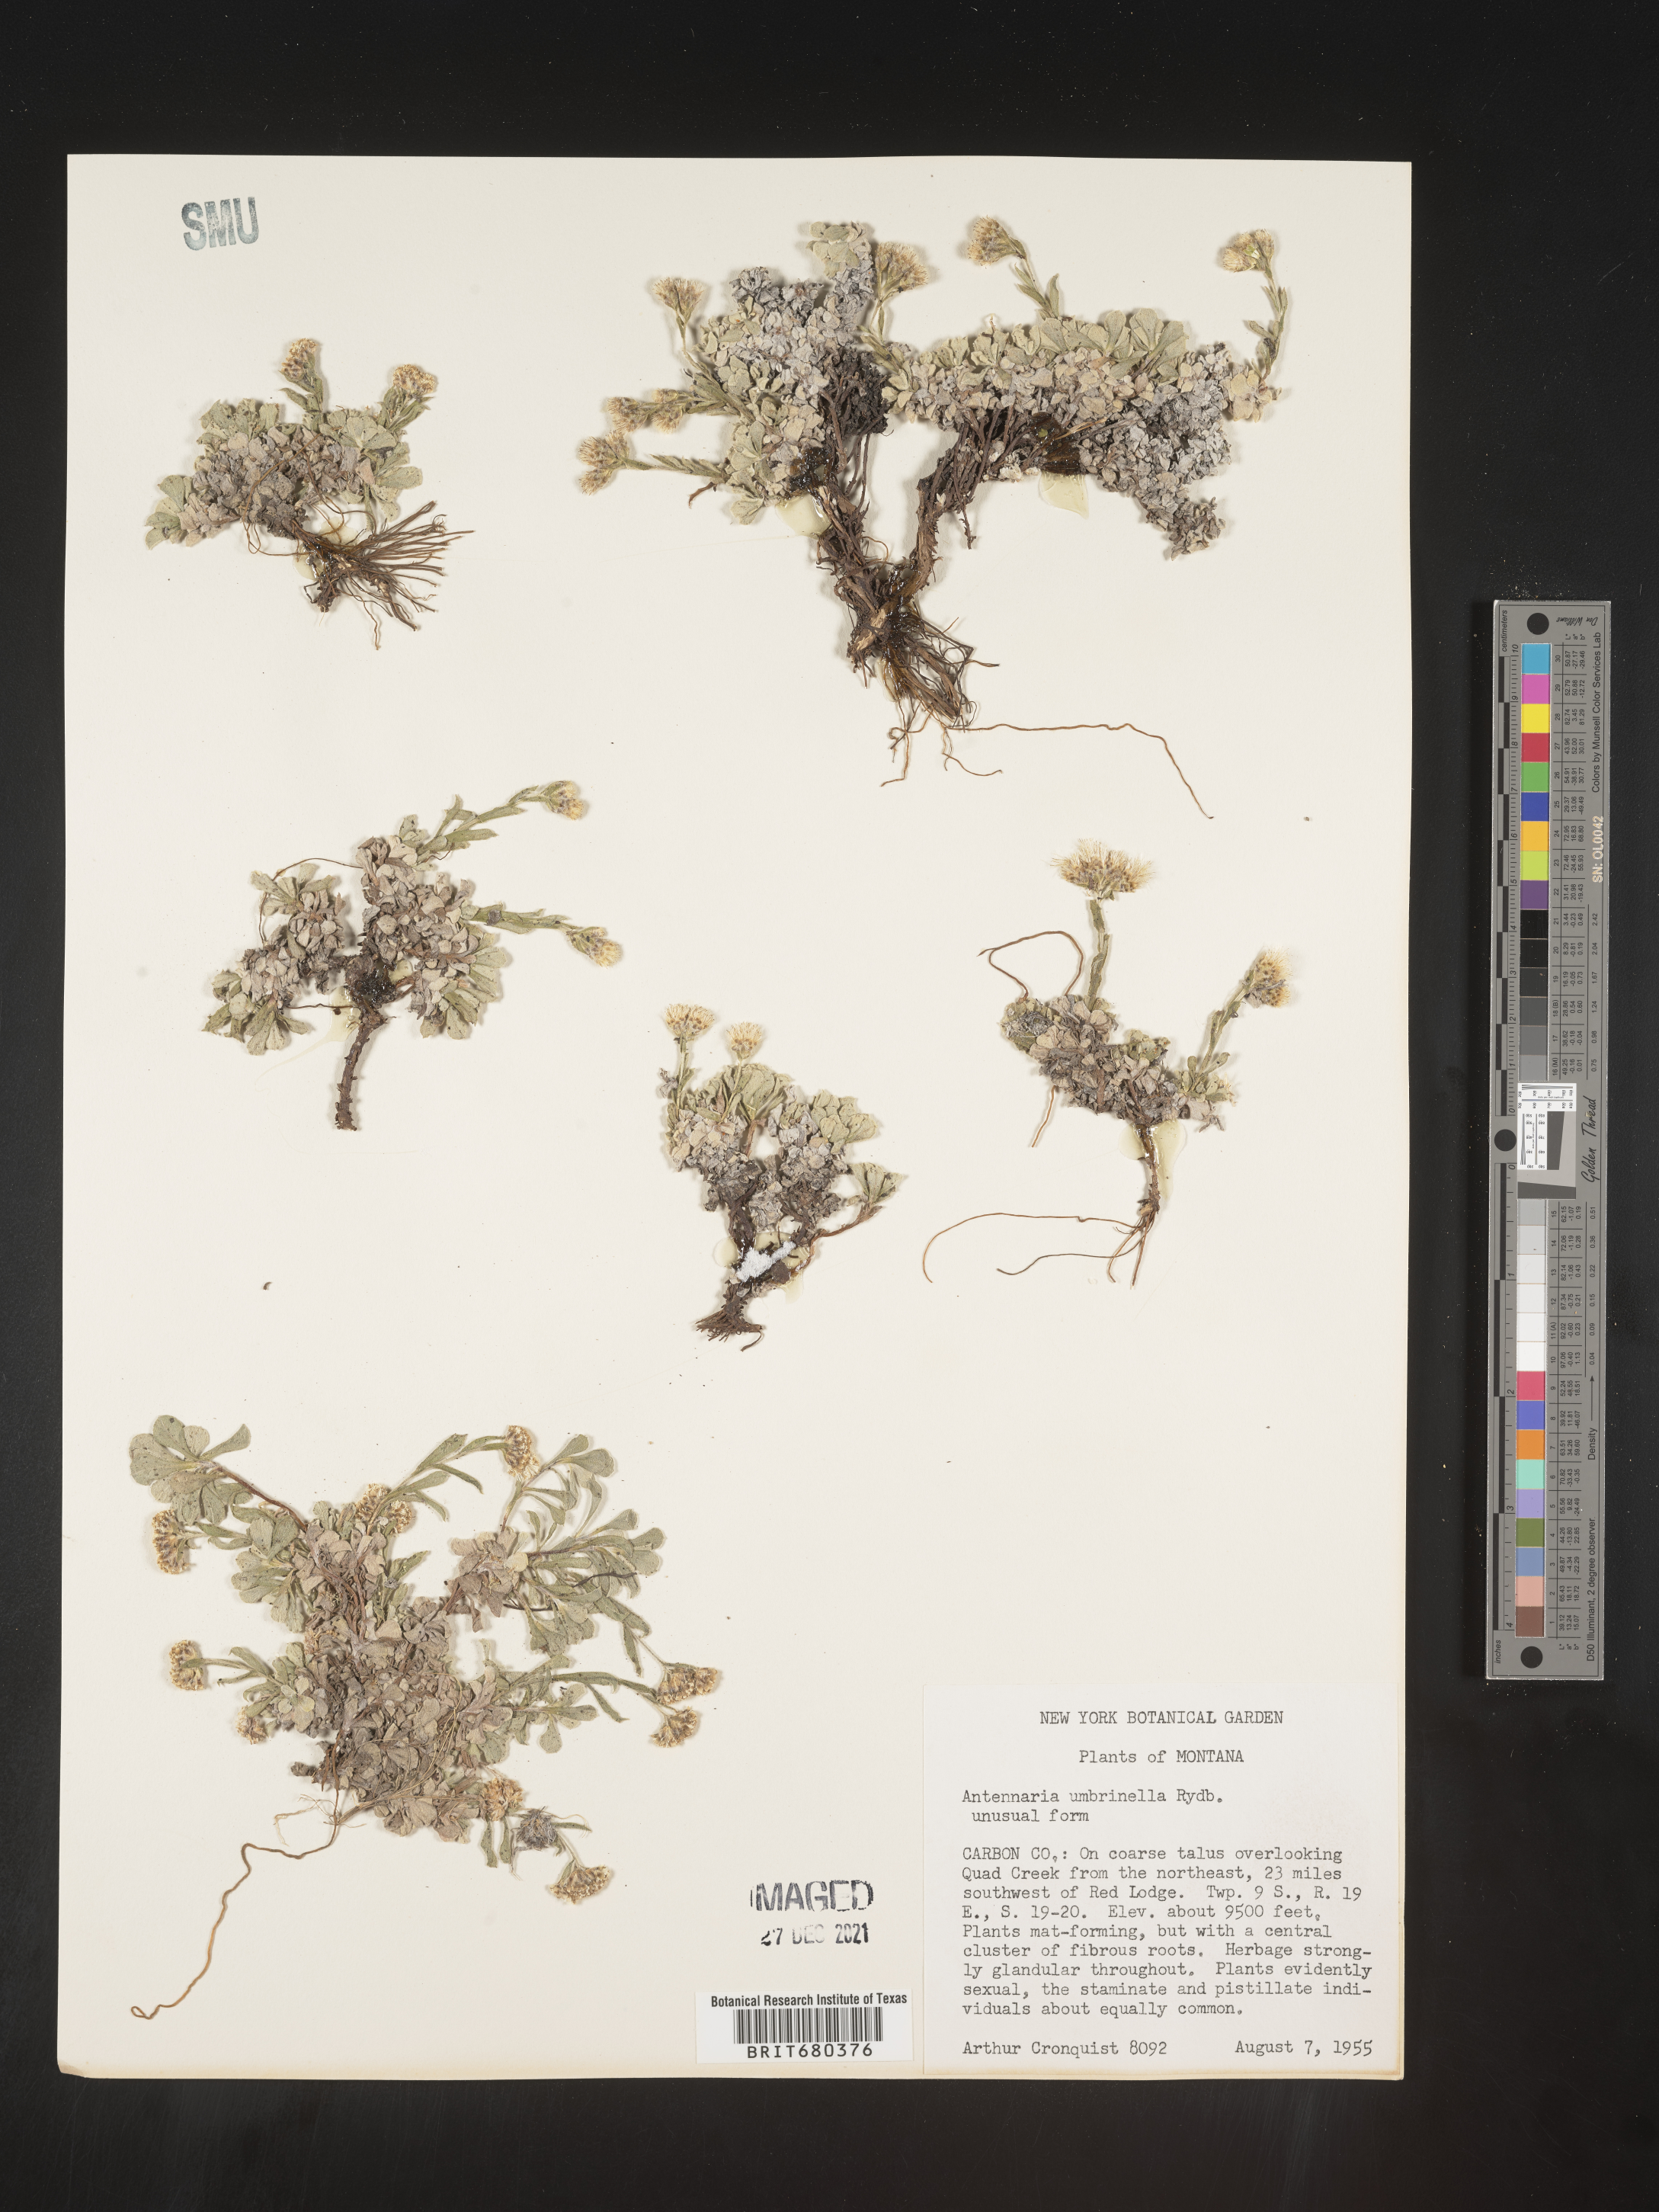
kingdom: Plantae
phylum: Tracheophyta
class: Magnoliopsida
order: Asterales
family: Asteraceae
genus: Antennaria
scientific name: Antennaria umbrinella
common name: Brown pussytoes
